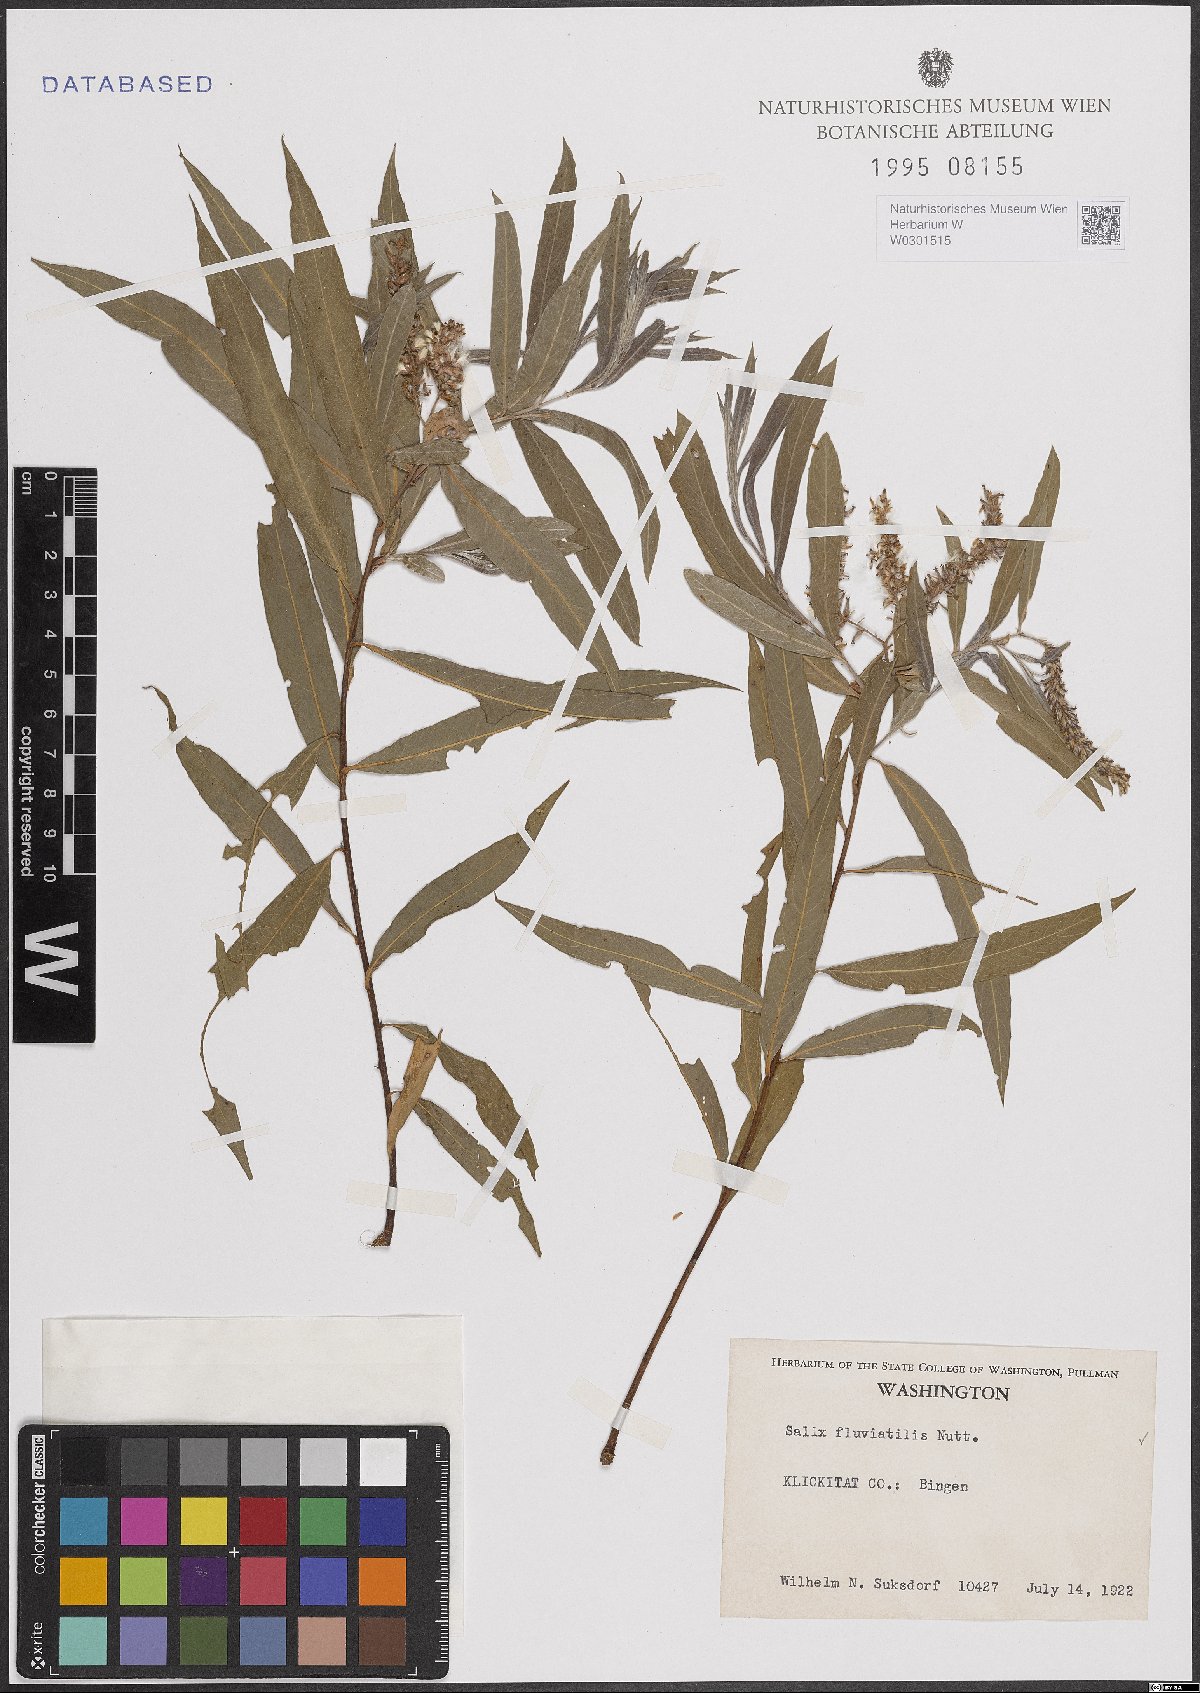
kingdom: Plantae
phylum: Tracheophyta
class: Magnoliopsida
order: Malpighiales
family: Salicaceae
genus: Salix
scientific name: Salix melanopsis
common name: Dusky willow
